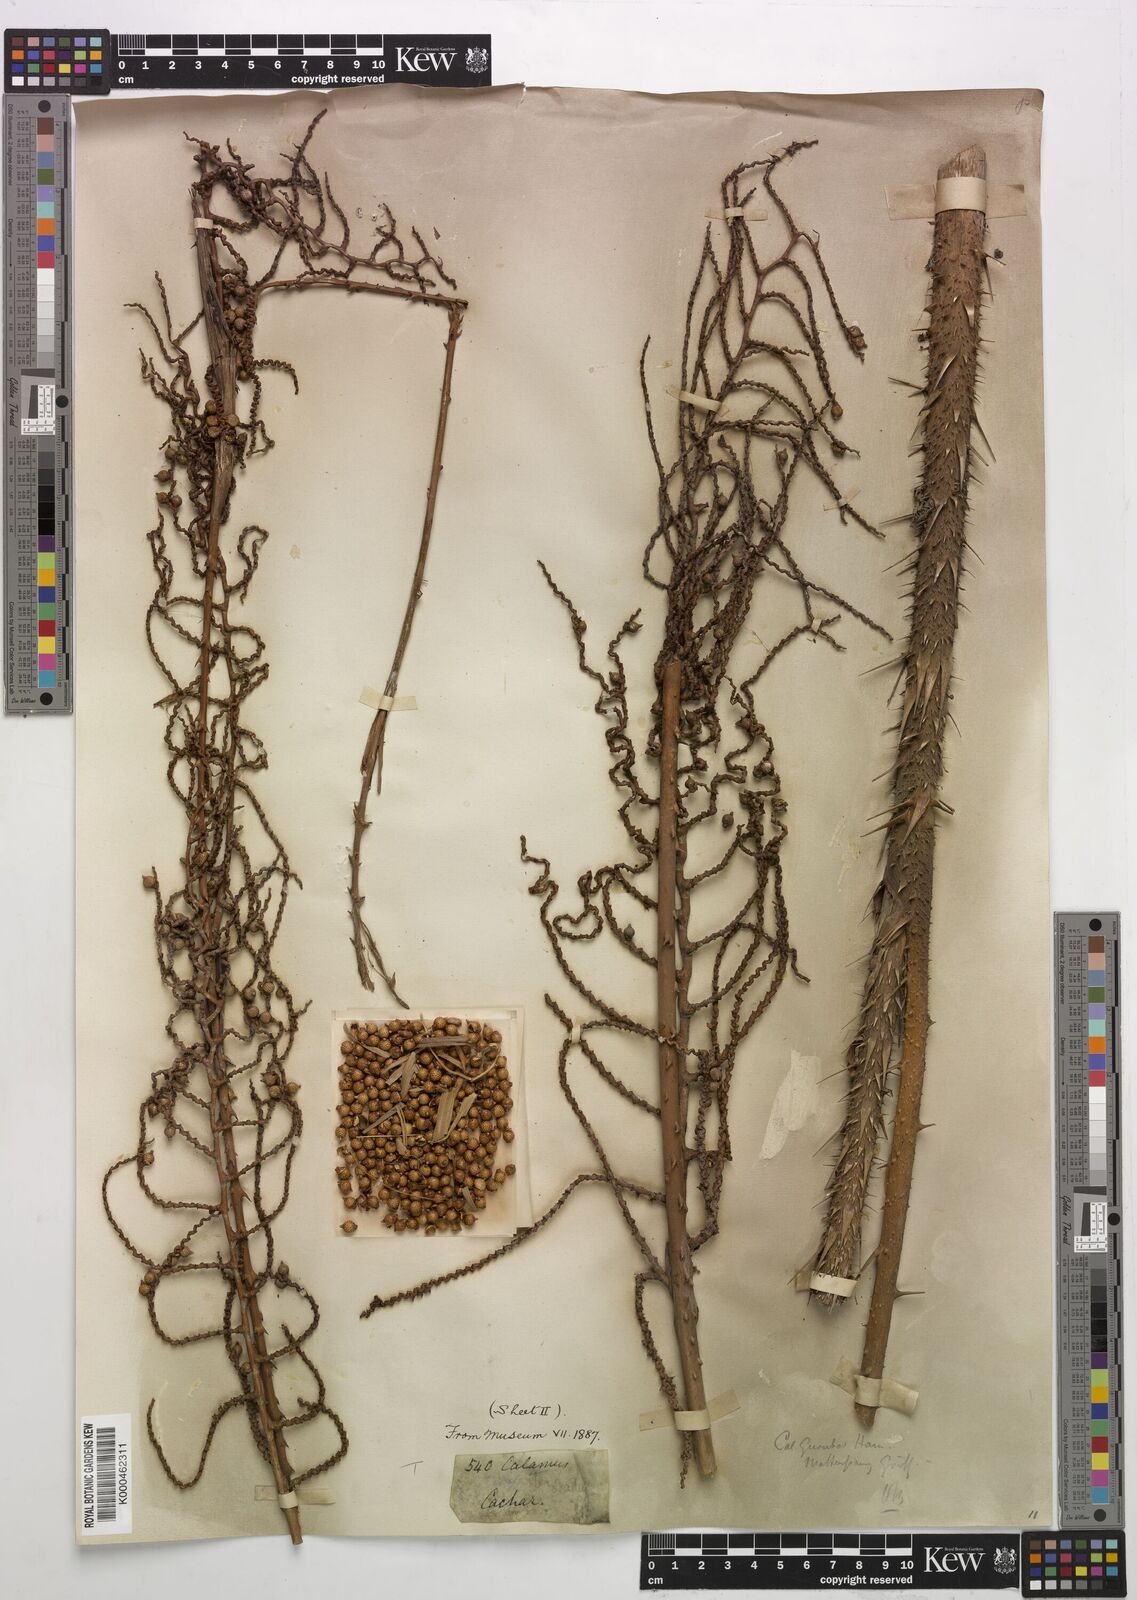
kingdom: Plantae
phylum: Tracheophyta
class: Liliopsida
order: Arecales
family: Arecaceae
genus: Calamus
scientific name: Calamus
